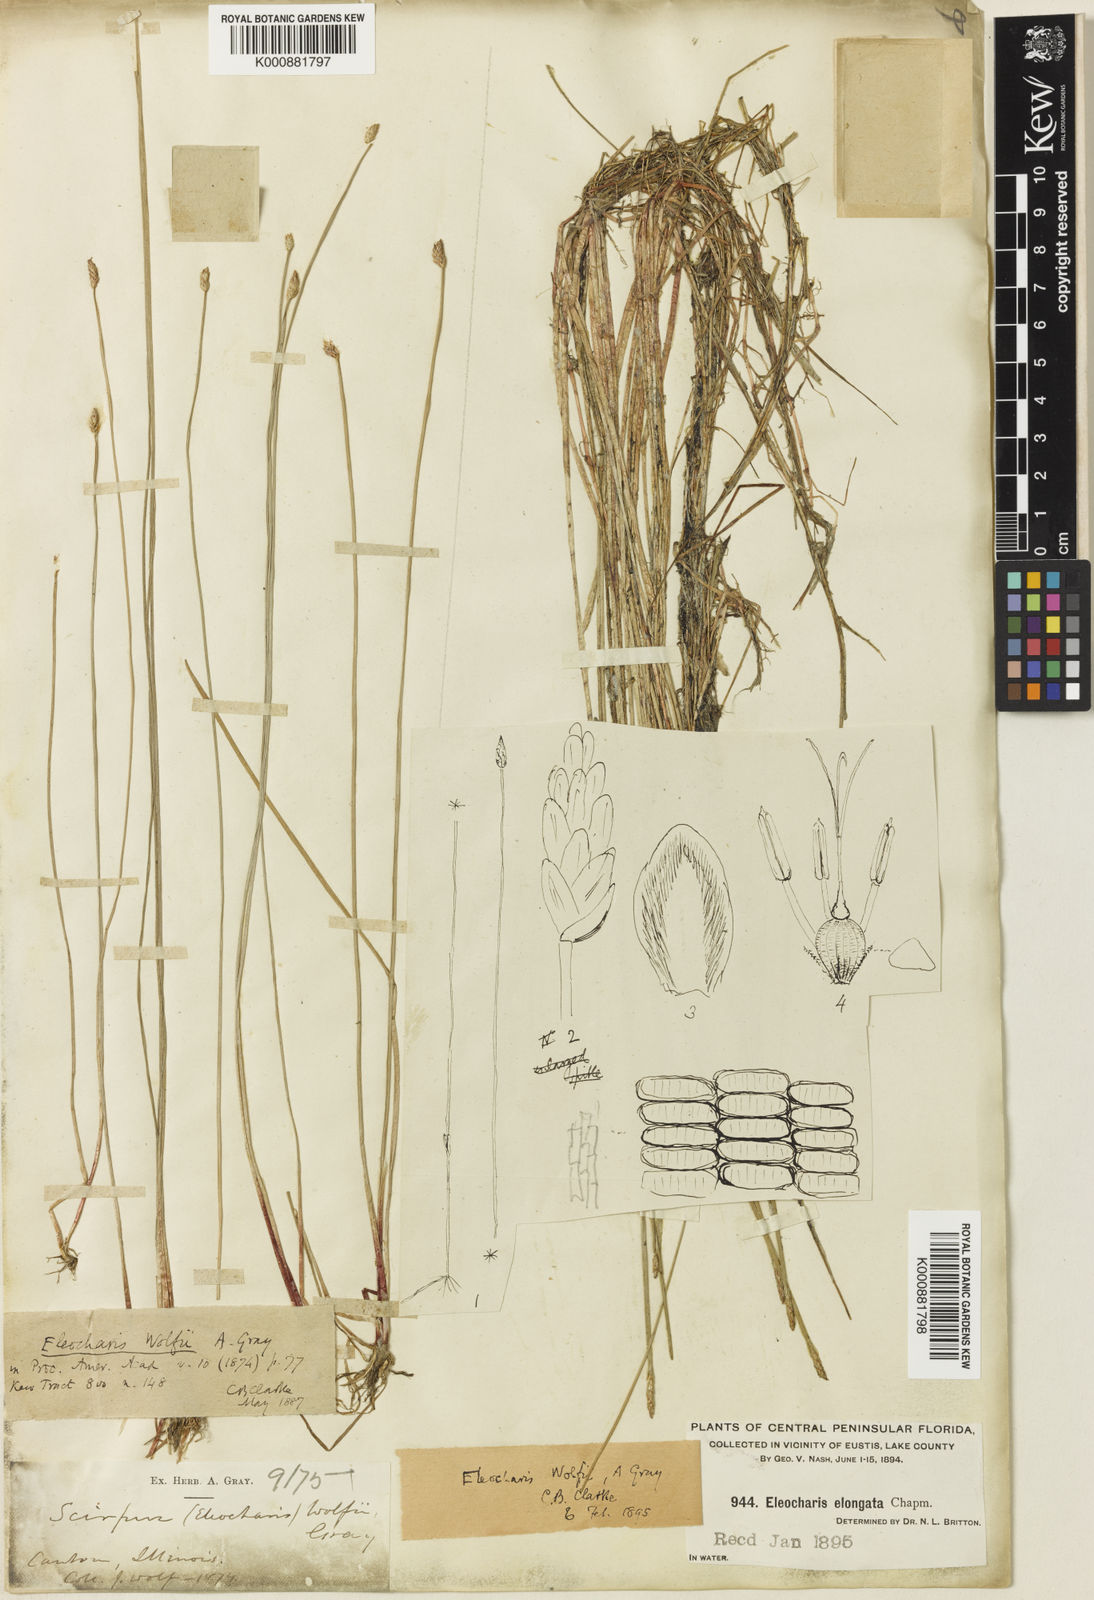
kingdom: Plantae
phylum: Tracheophyta
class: Liliopsida
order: Poales
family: Cyperaceae
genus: Eleocharis
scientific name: Eleocharis wolfii
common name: Wolf's spikerush
